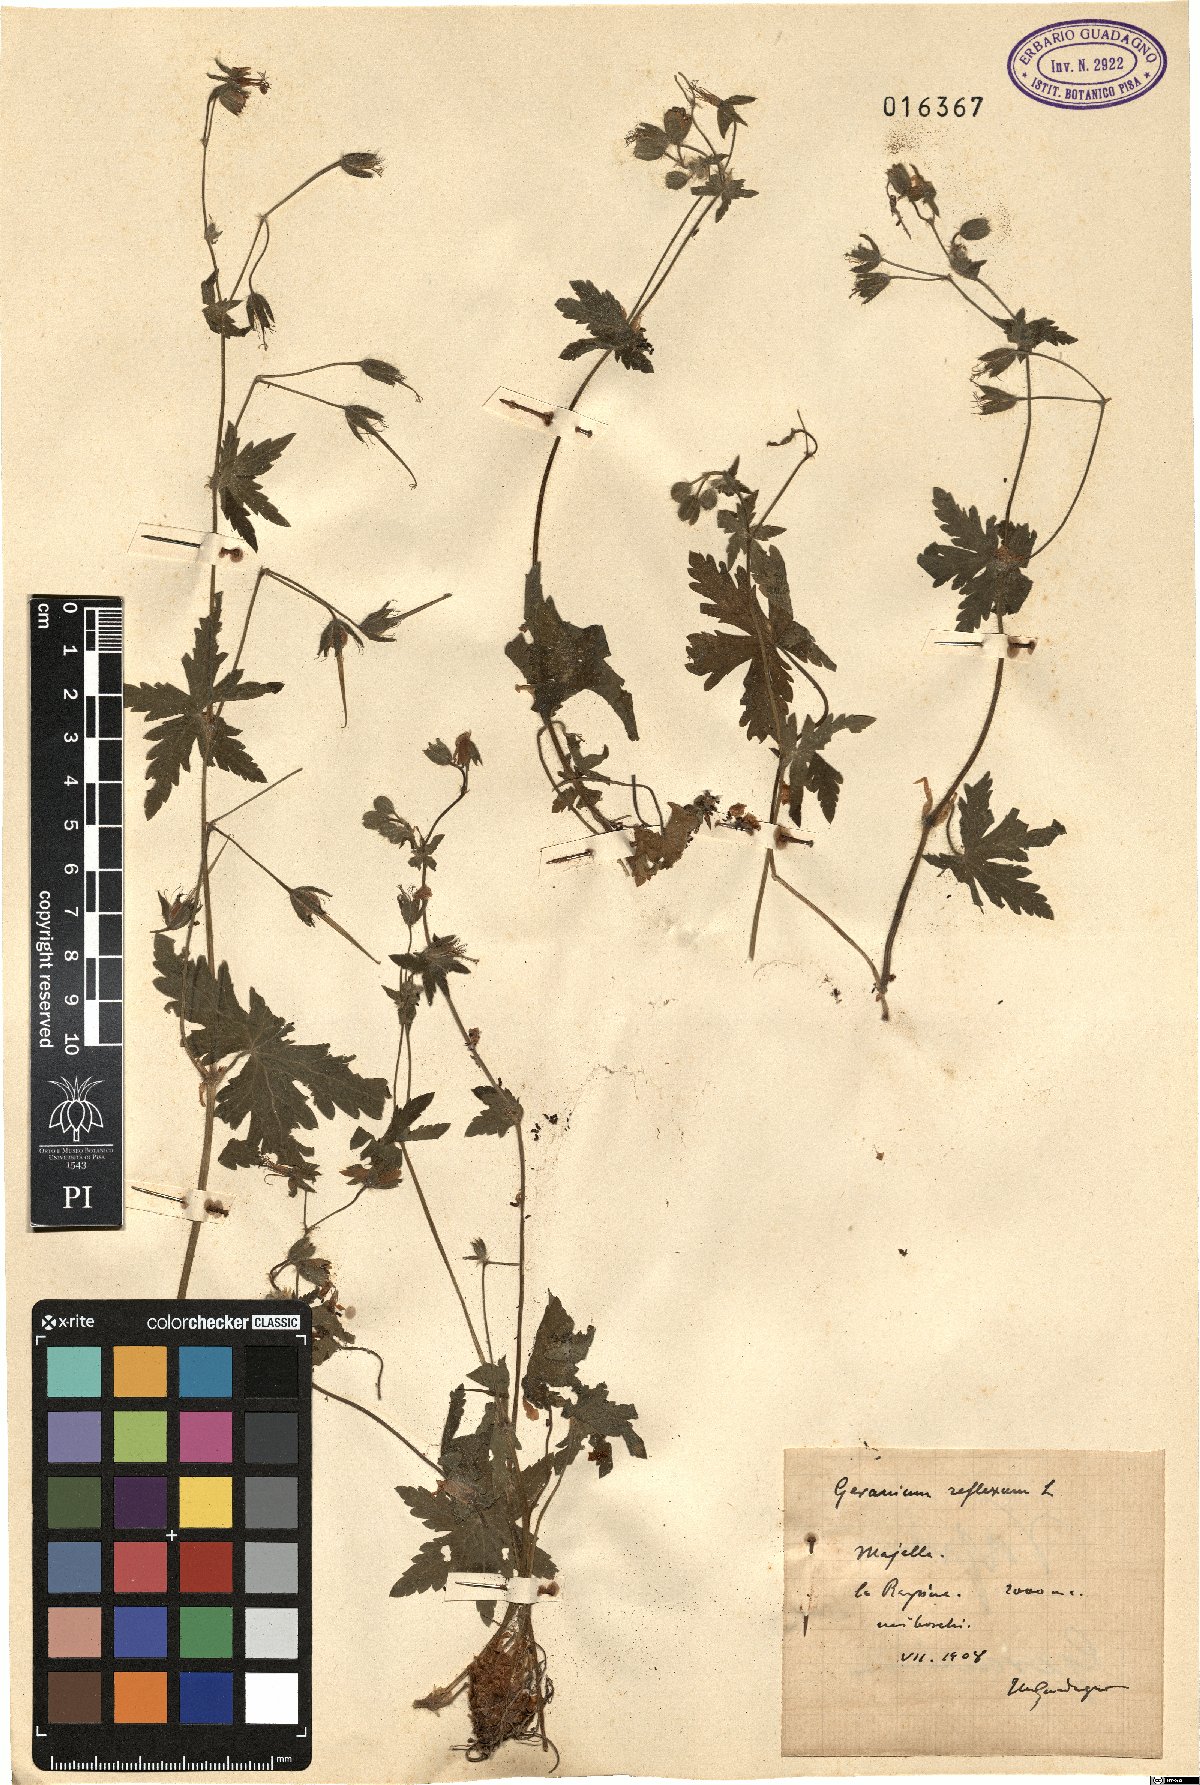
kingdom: Plantae
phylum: Tracheophyta
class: Magnoliopsida
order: Geraniales
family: Geraniaceae
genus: Geranium
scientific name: Geranium reflexum
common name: Reflexed crane's-bill
